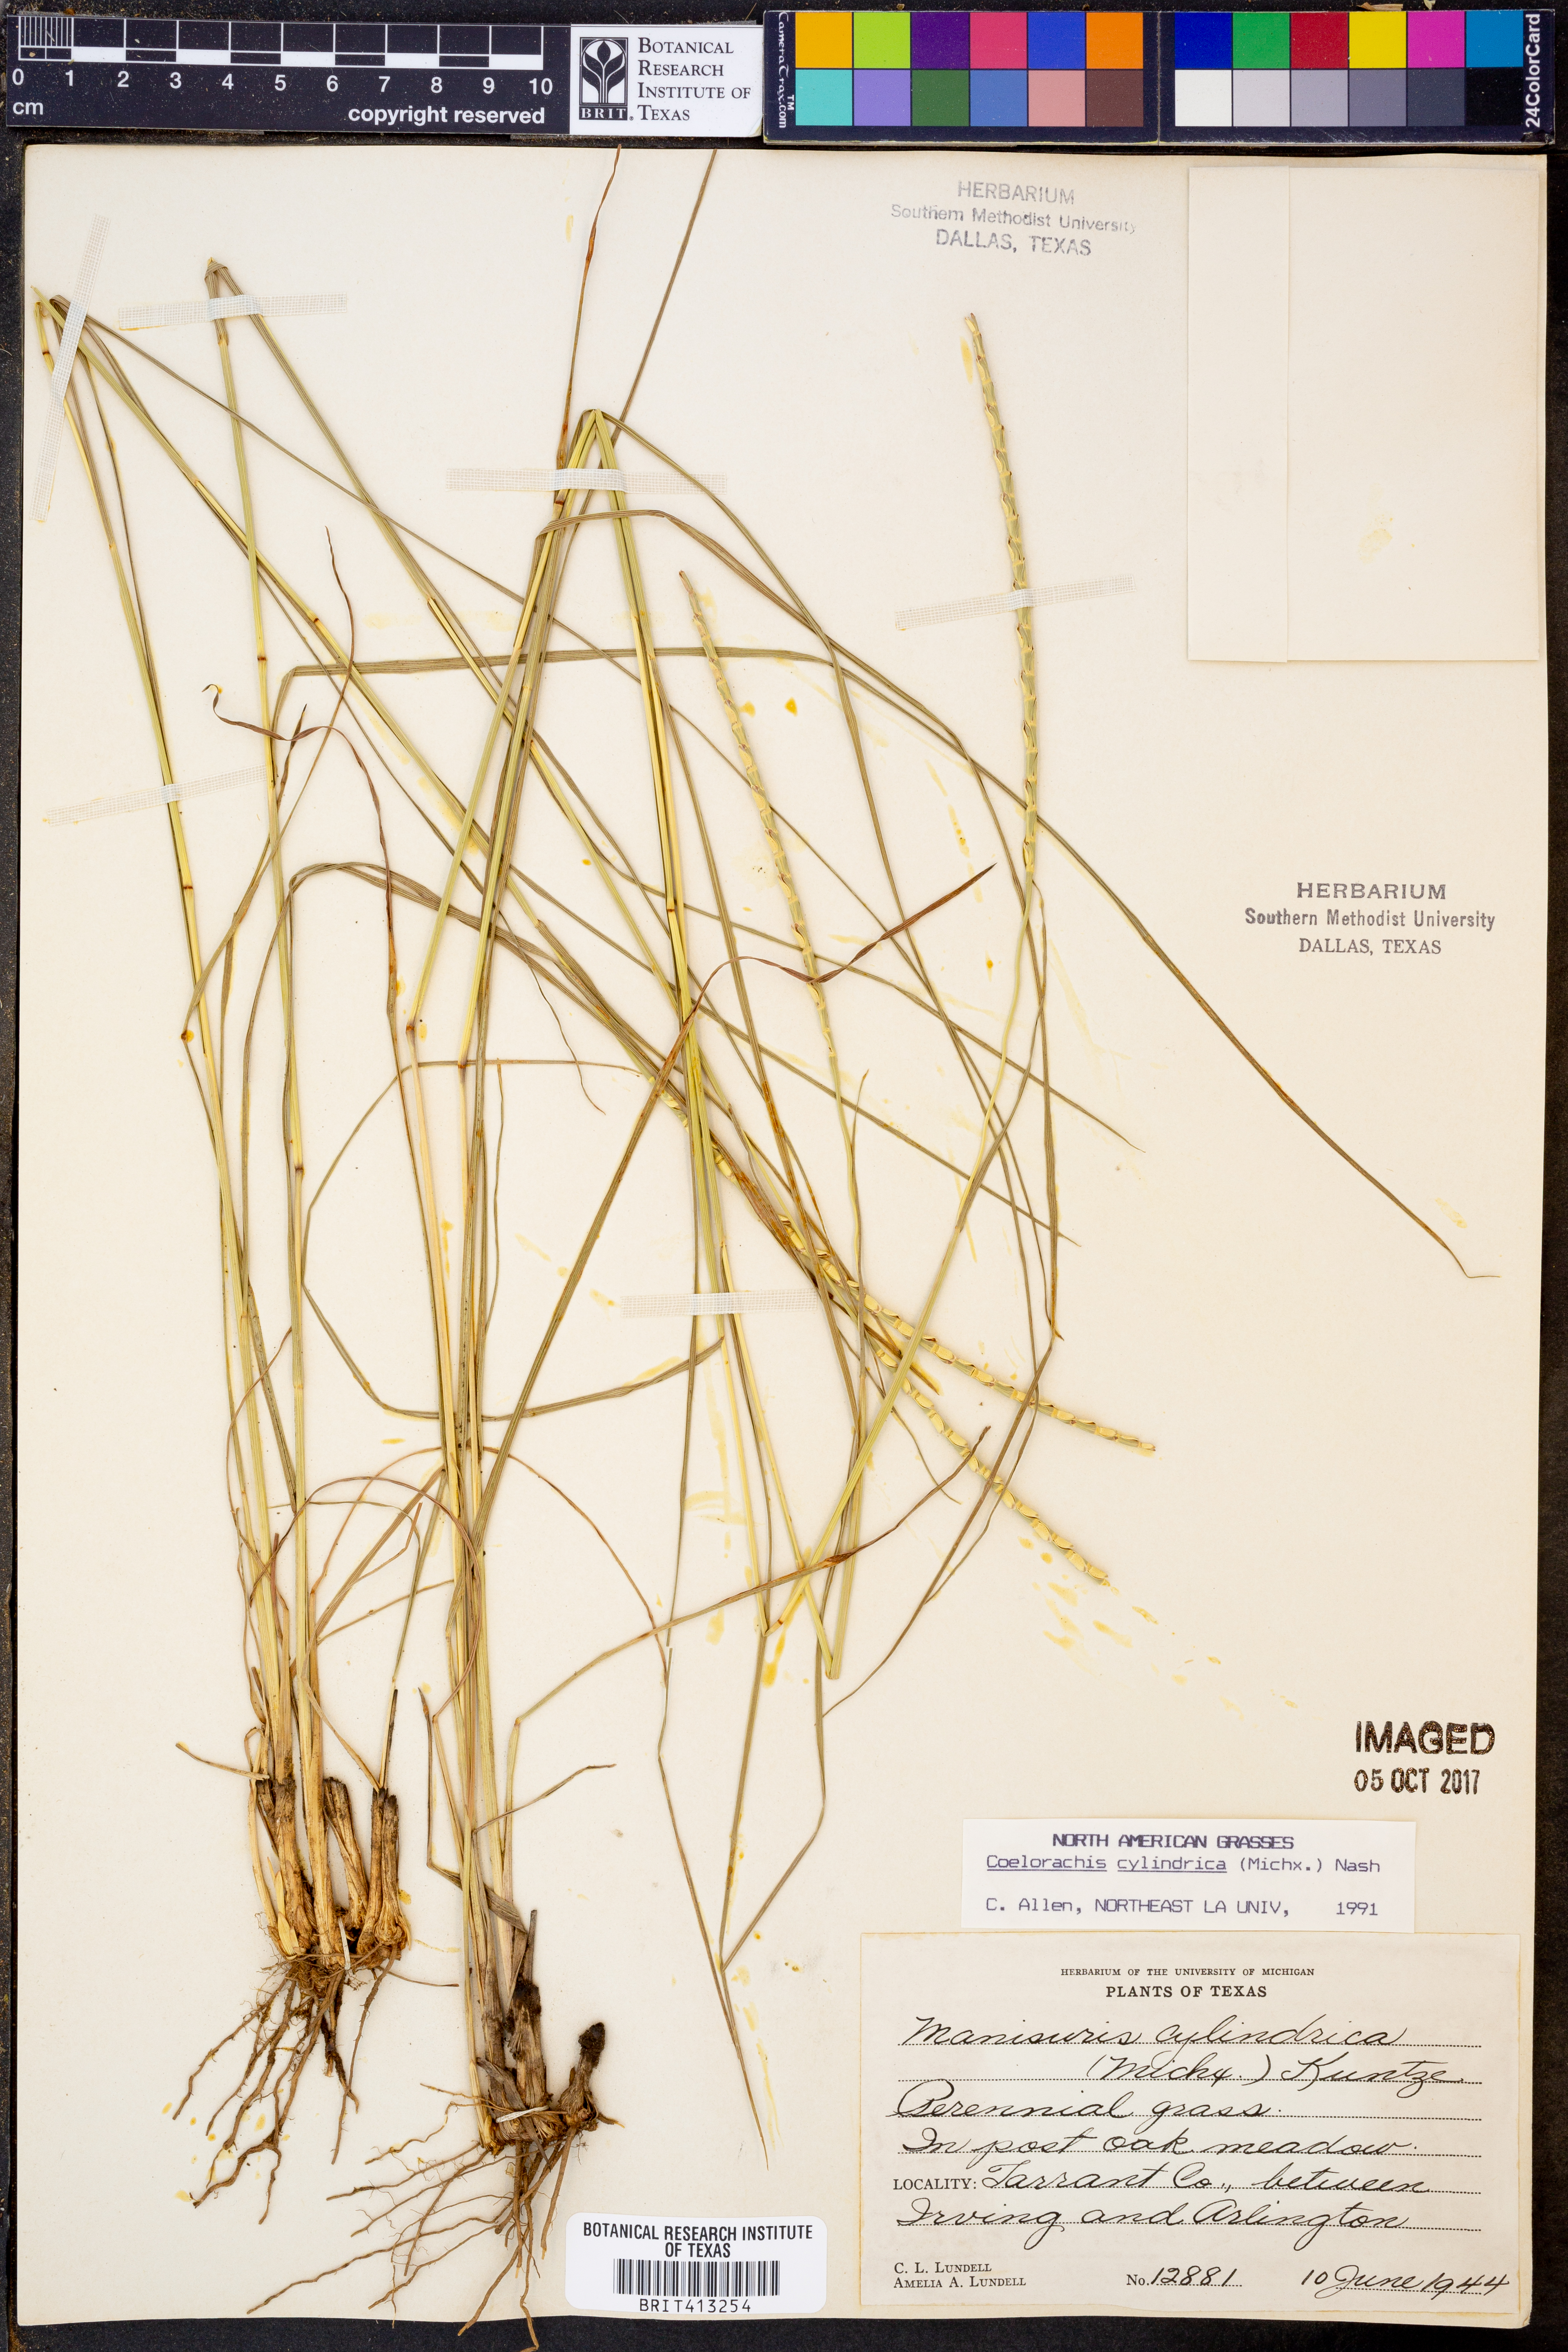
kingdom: Plantae
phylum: Tracheophyta
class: Liliopsida
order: Poales
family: Poaceae
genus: Rottboellia
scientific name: Rottboellia campestris
